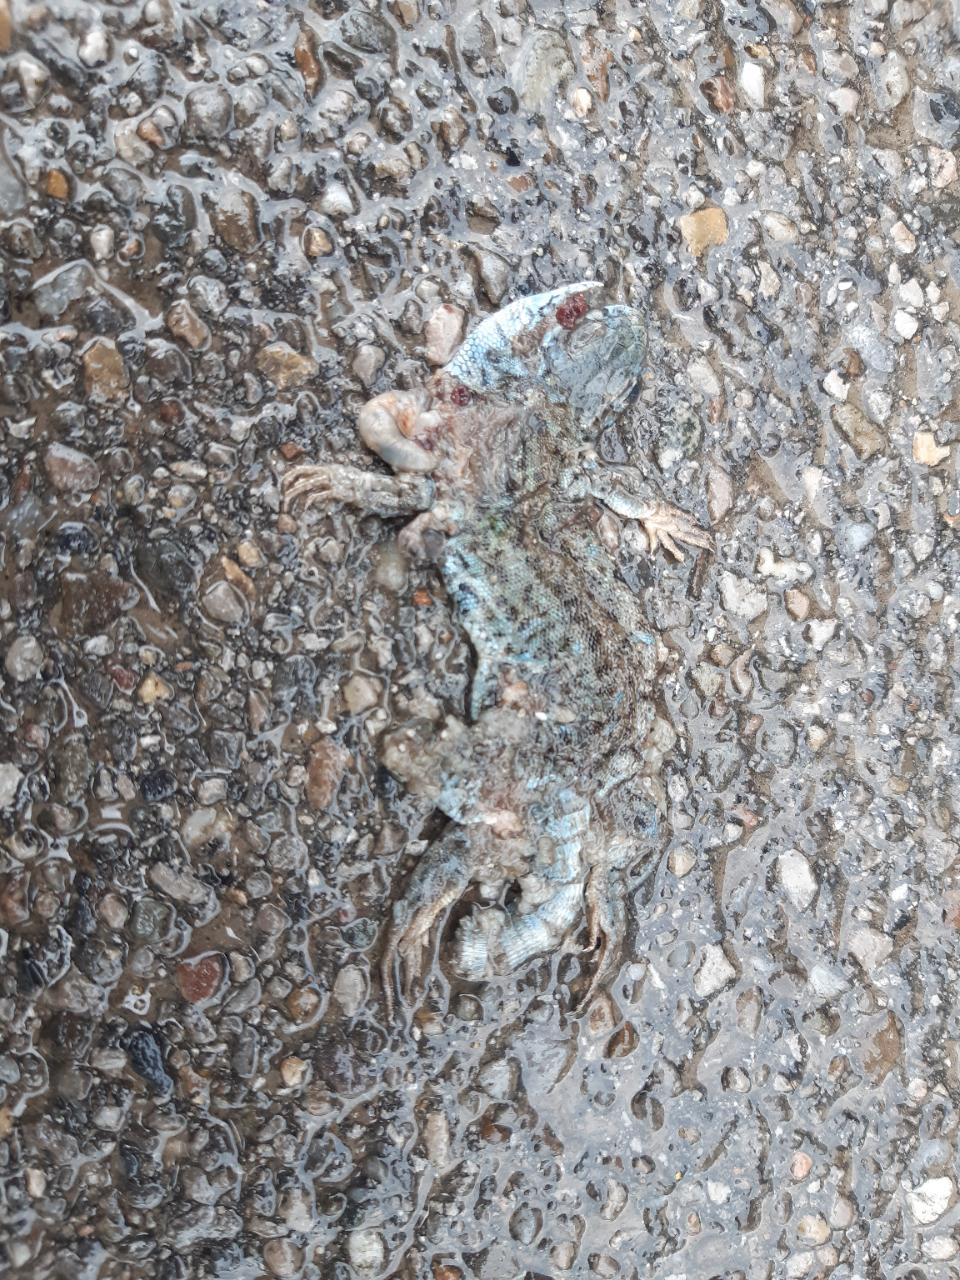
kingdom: Animalia
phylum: Chordata
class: Squamata
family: Lacertidae
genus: Lacerta
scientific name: Lacerta agilis
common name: Sand lizard
